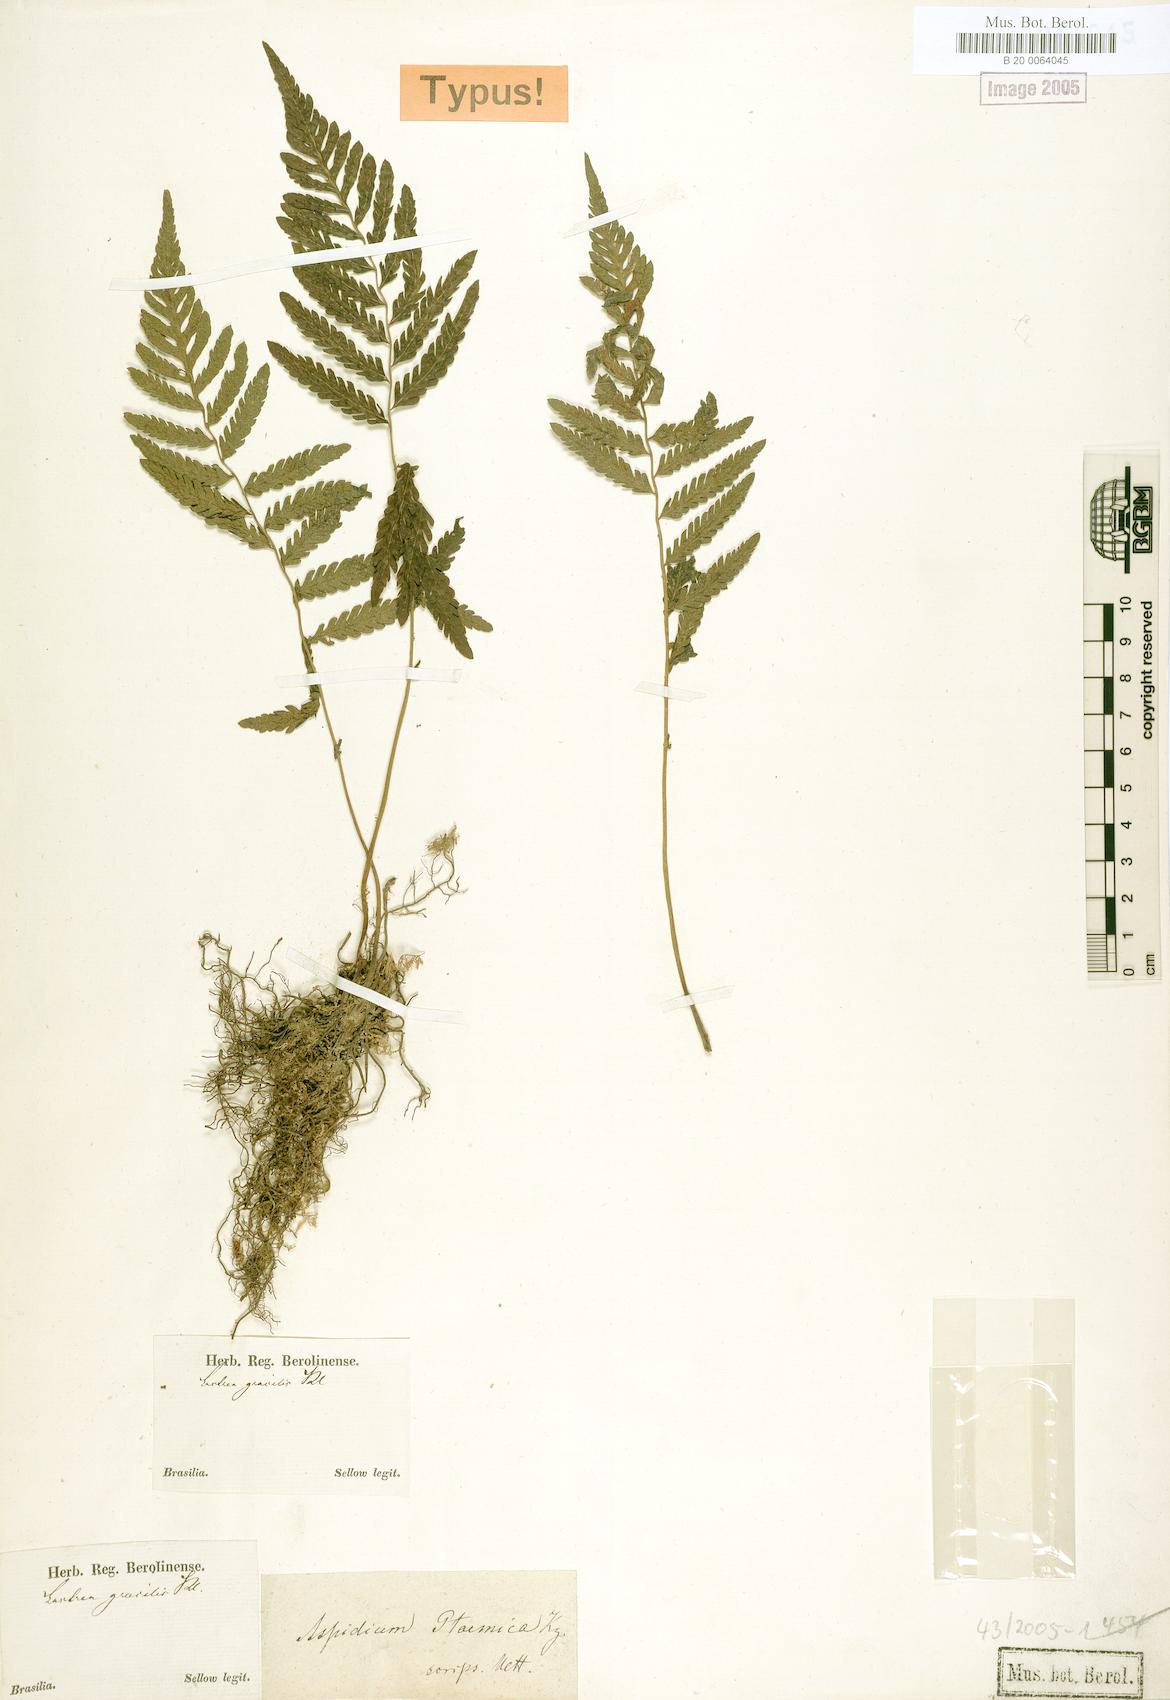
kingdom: Plantae
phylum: Tracheophyta
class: Polypodiopsida
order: Polypodiales
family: Thelypteridaceae
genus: Amauropelta
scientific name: Amauropelta ptarmica
